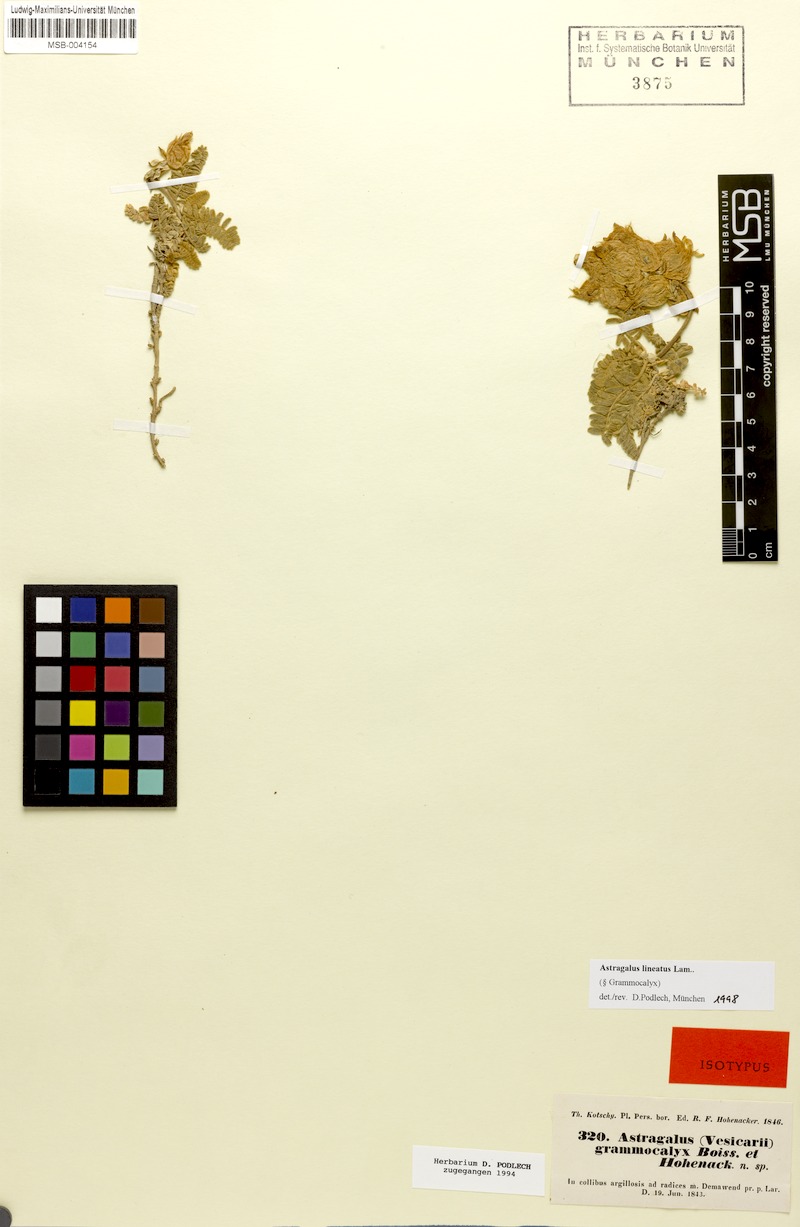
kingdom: Plantae
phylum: Tracheophyta
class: Magnoliopsida
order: Fabales
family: Fabaceae
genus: Astragalus
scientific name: Astragalus lineatus
